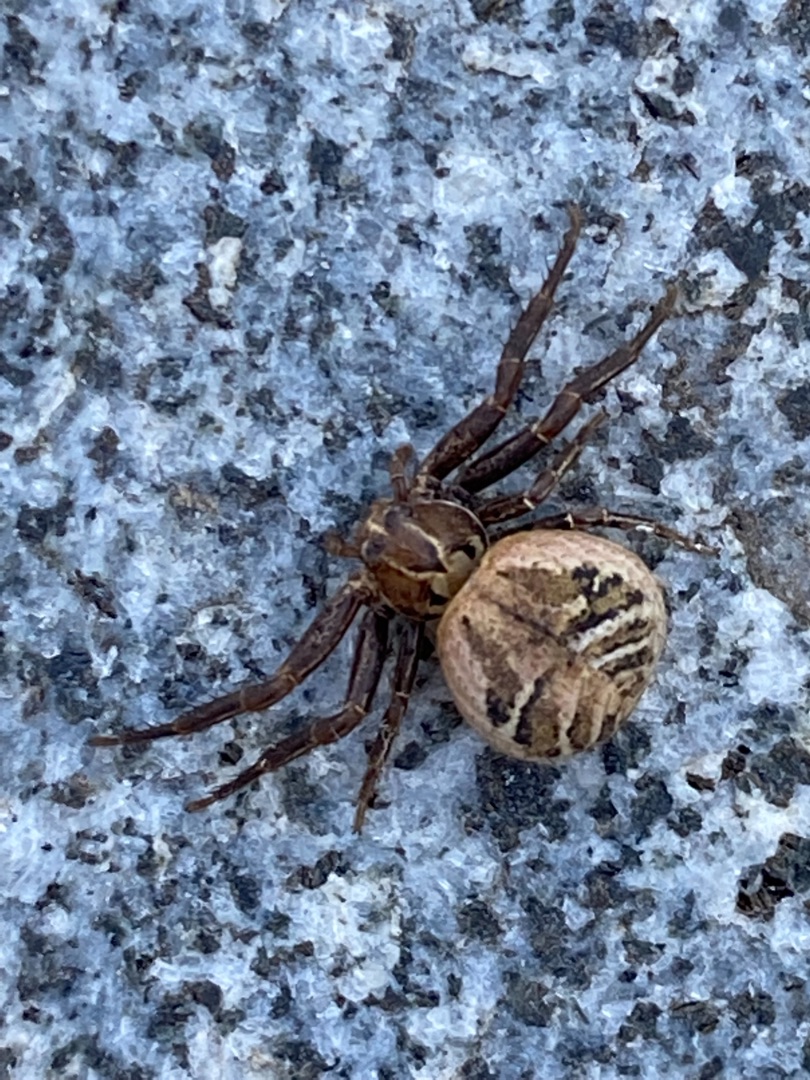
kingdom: Animalia
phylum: Arthropoda
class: Arachnida
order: Araneae
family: Thomisidae
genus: Xysticus
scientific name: Xysticus
